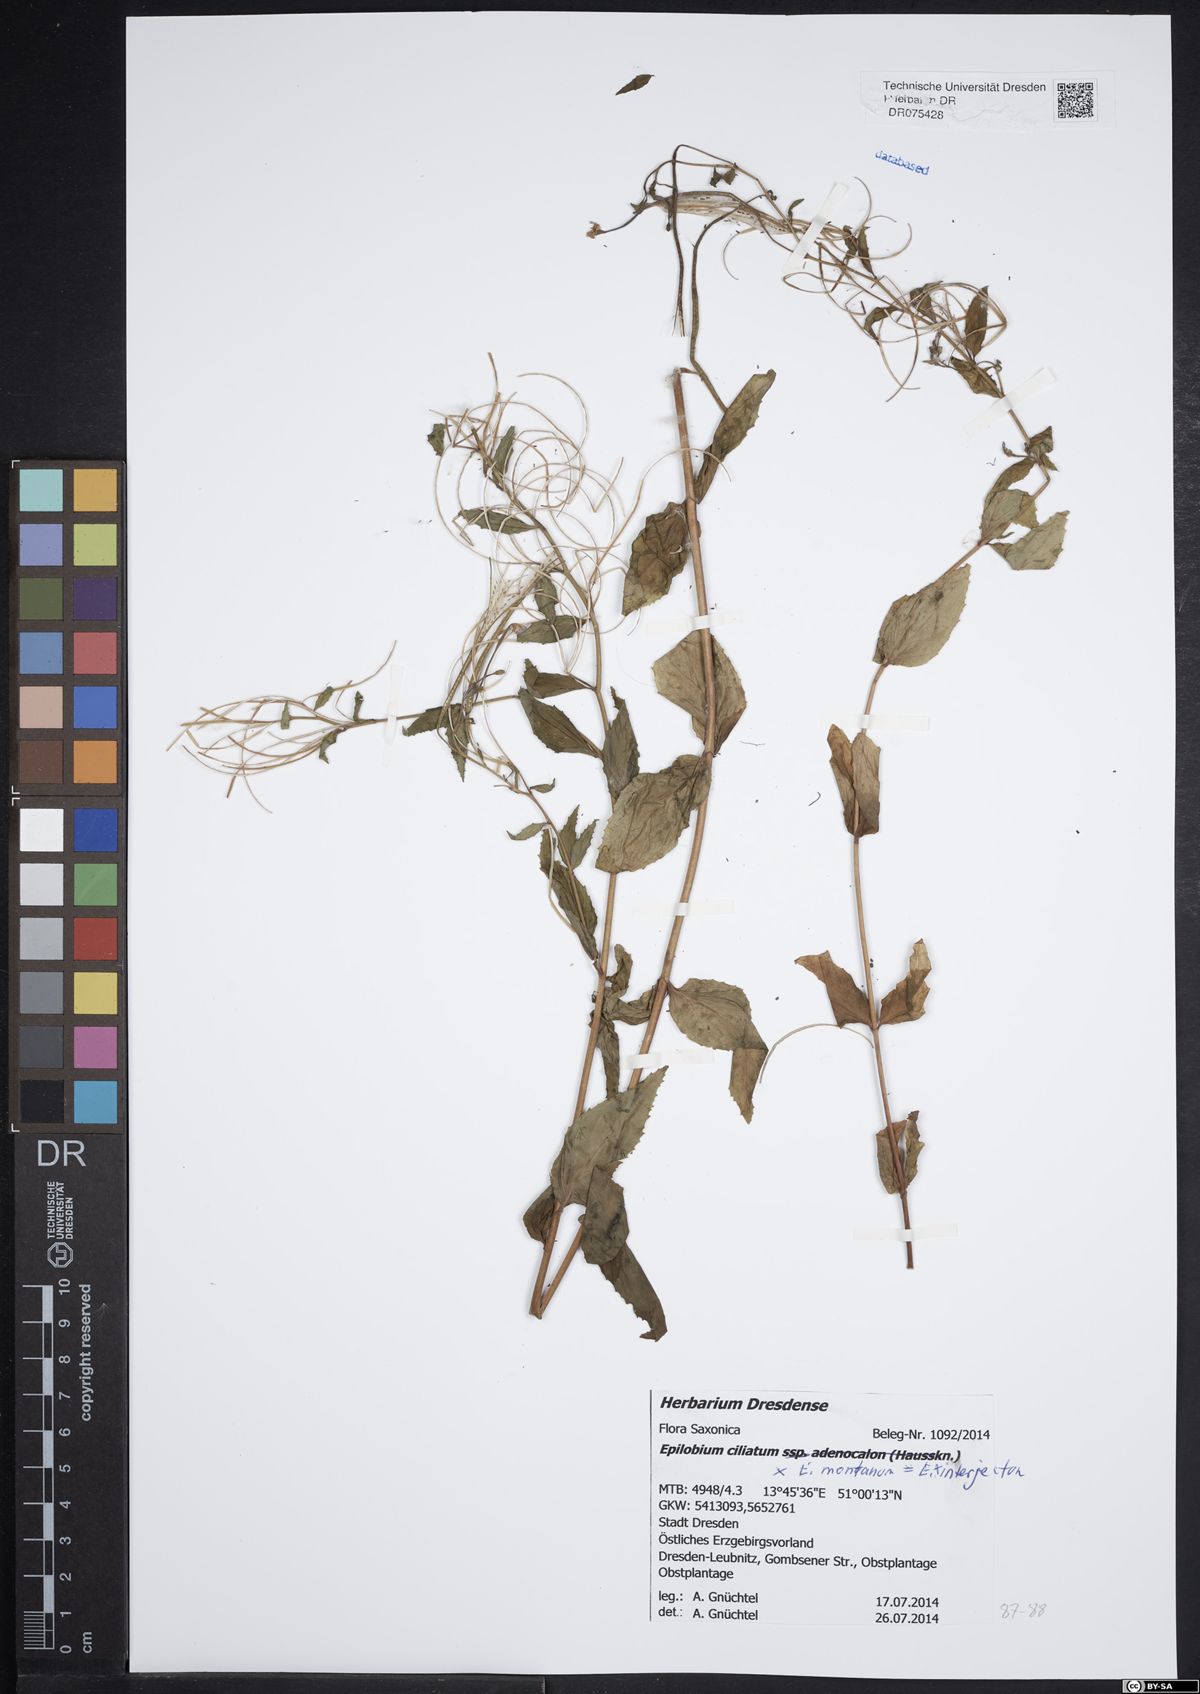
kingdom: Plantae
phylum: Tracheophyta
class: Magnoliopsida
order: Myrtales
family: Onagraceae
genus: Epilobium
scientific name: Epilobium montanum
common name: Broad-leaved willowherb
